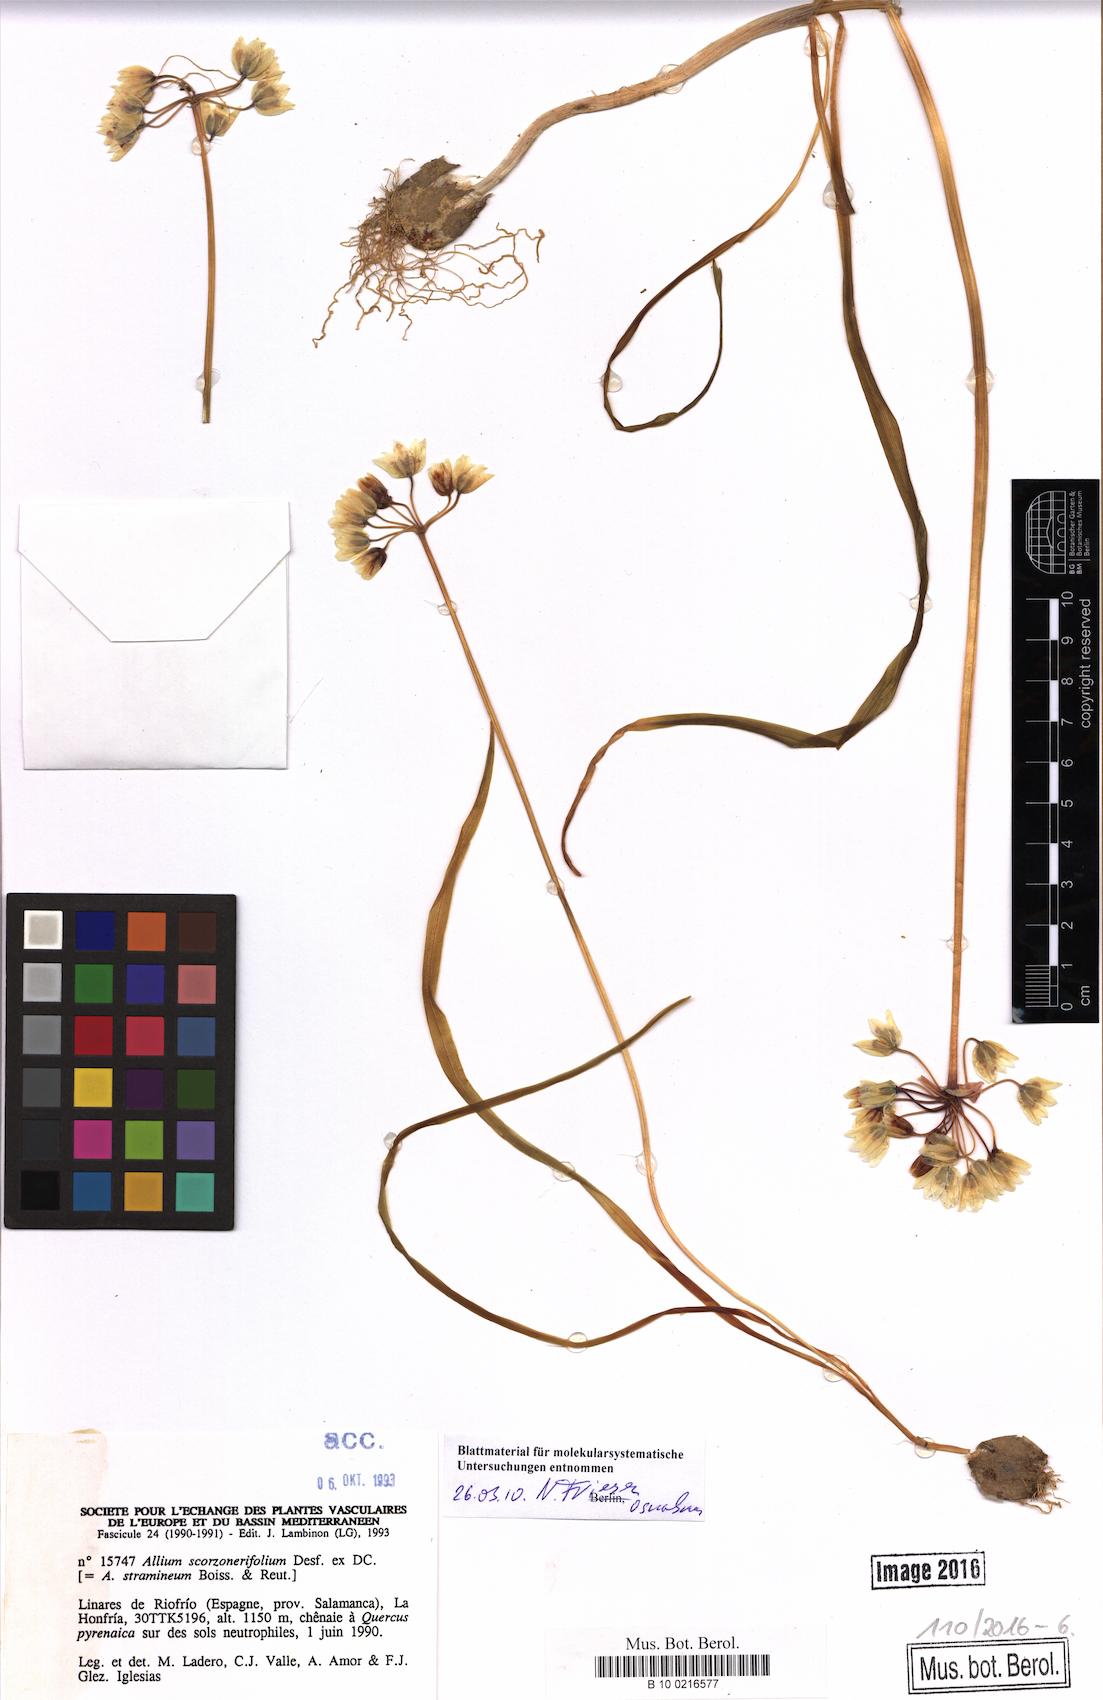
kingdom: Plantae
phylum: Tracheophyta
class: Liliopsida
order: Asparagales
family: Amaryllidaceae
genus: Allium
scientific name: Allium scorzonerifolium
